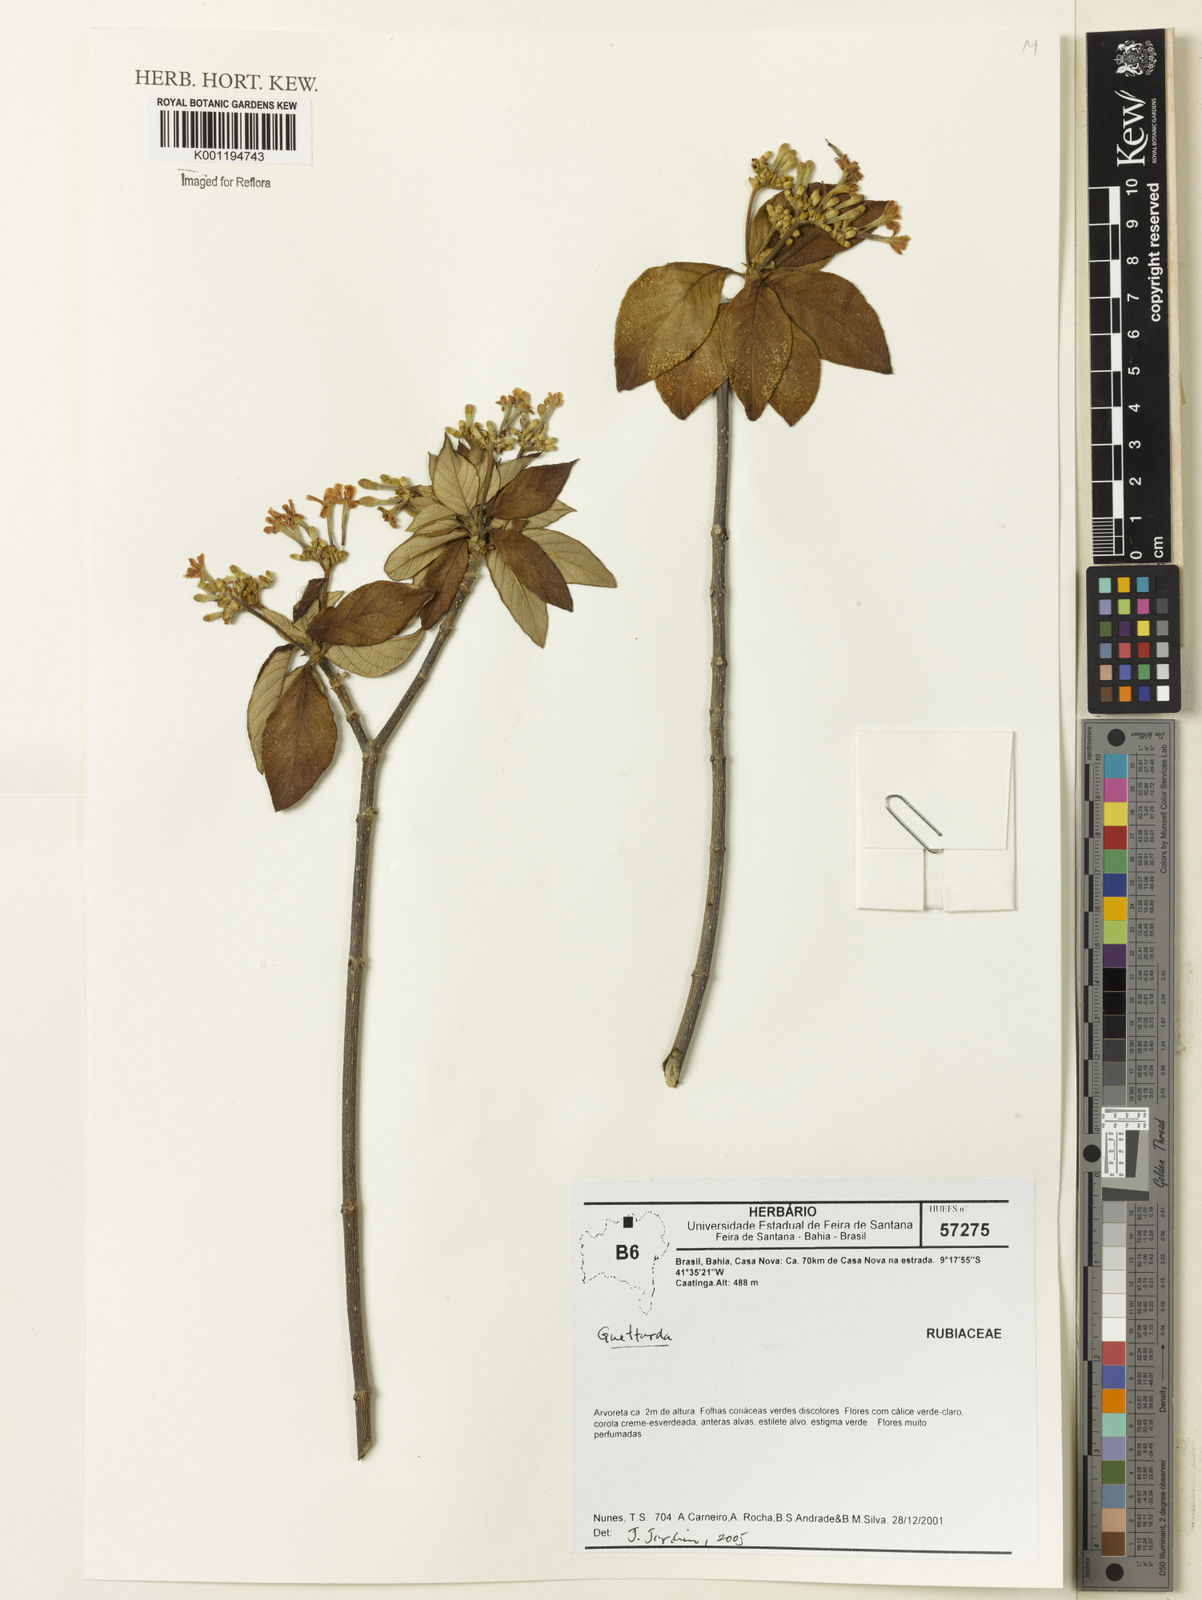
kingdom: Plantae
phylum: Tracheophyta
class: Magnoliopsida
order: Gentianales
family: Rubiaceae
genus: Guettarda
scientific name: Guettarda
